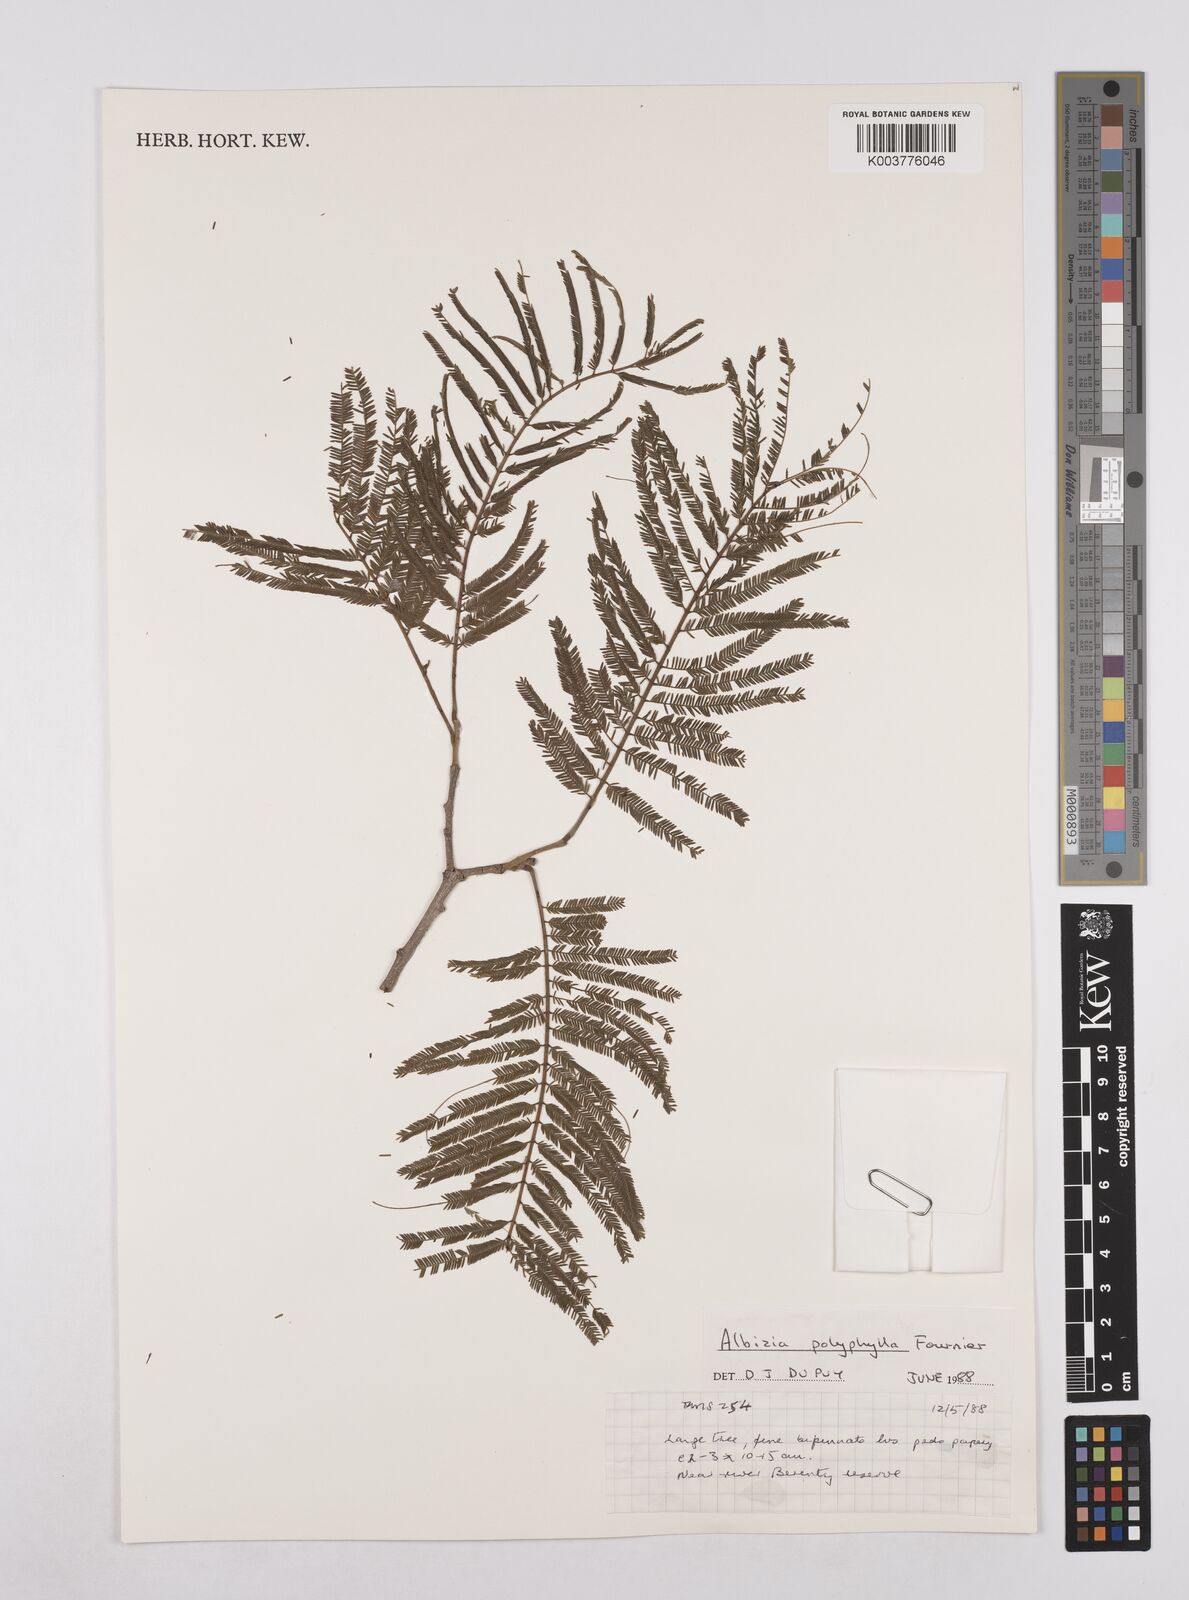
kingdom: Plantae
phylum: Tracheophyta
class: Magnoliopsida
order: Fabales
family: Fabaceae
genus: Albizia
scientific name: Albizia polyphylla
